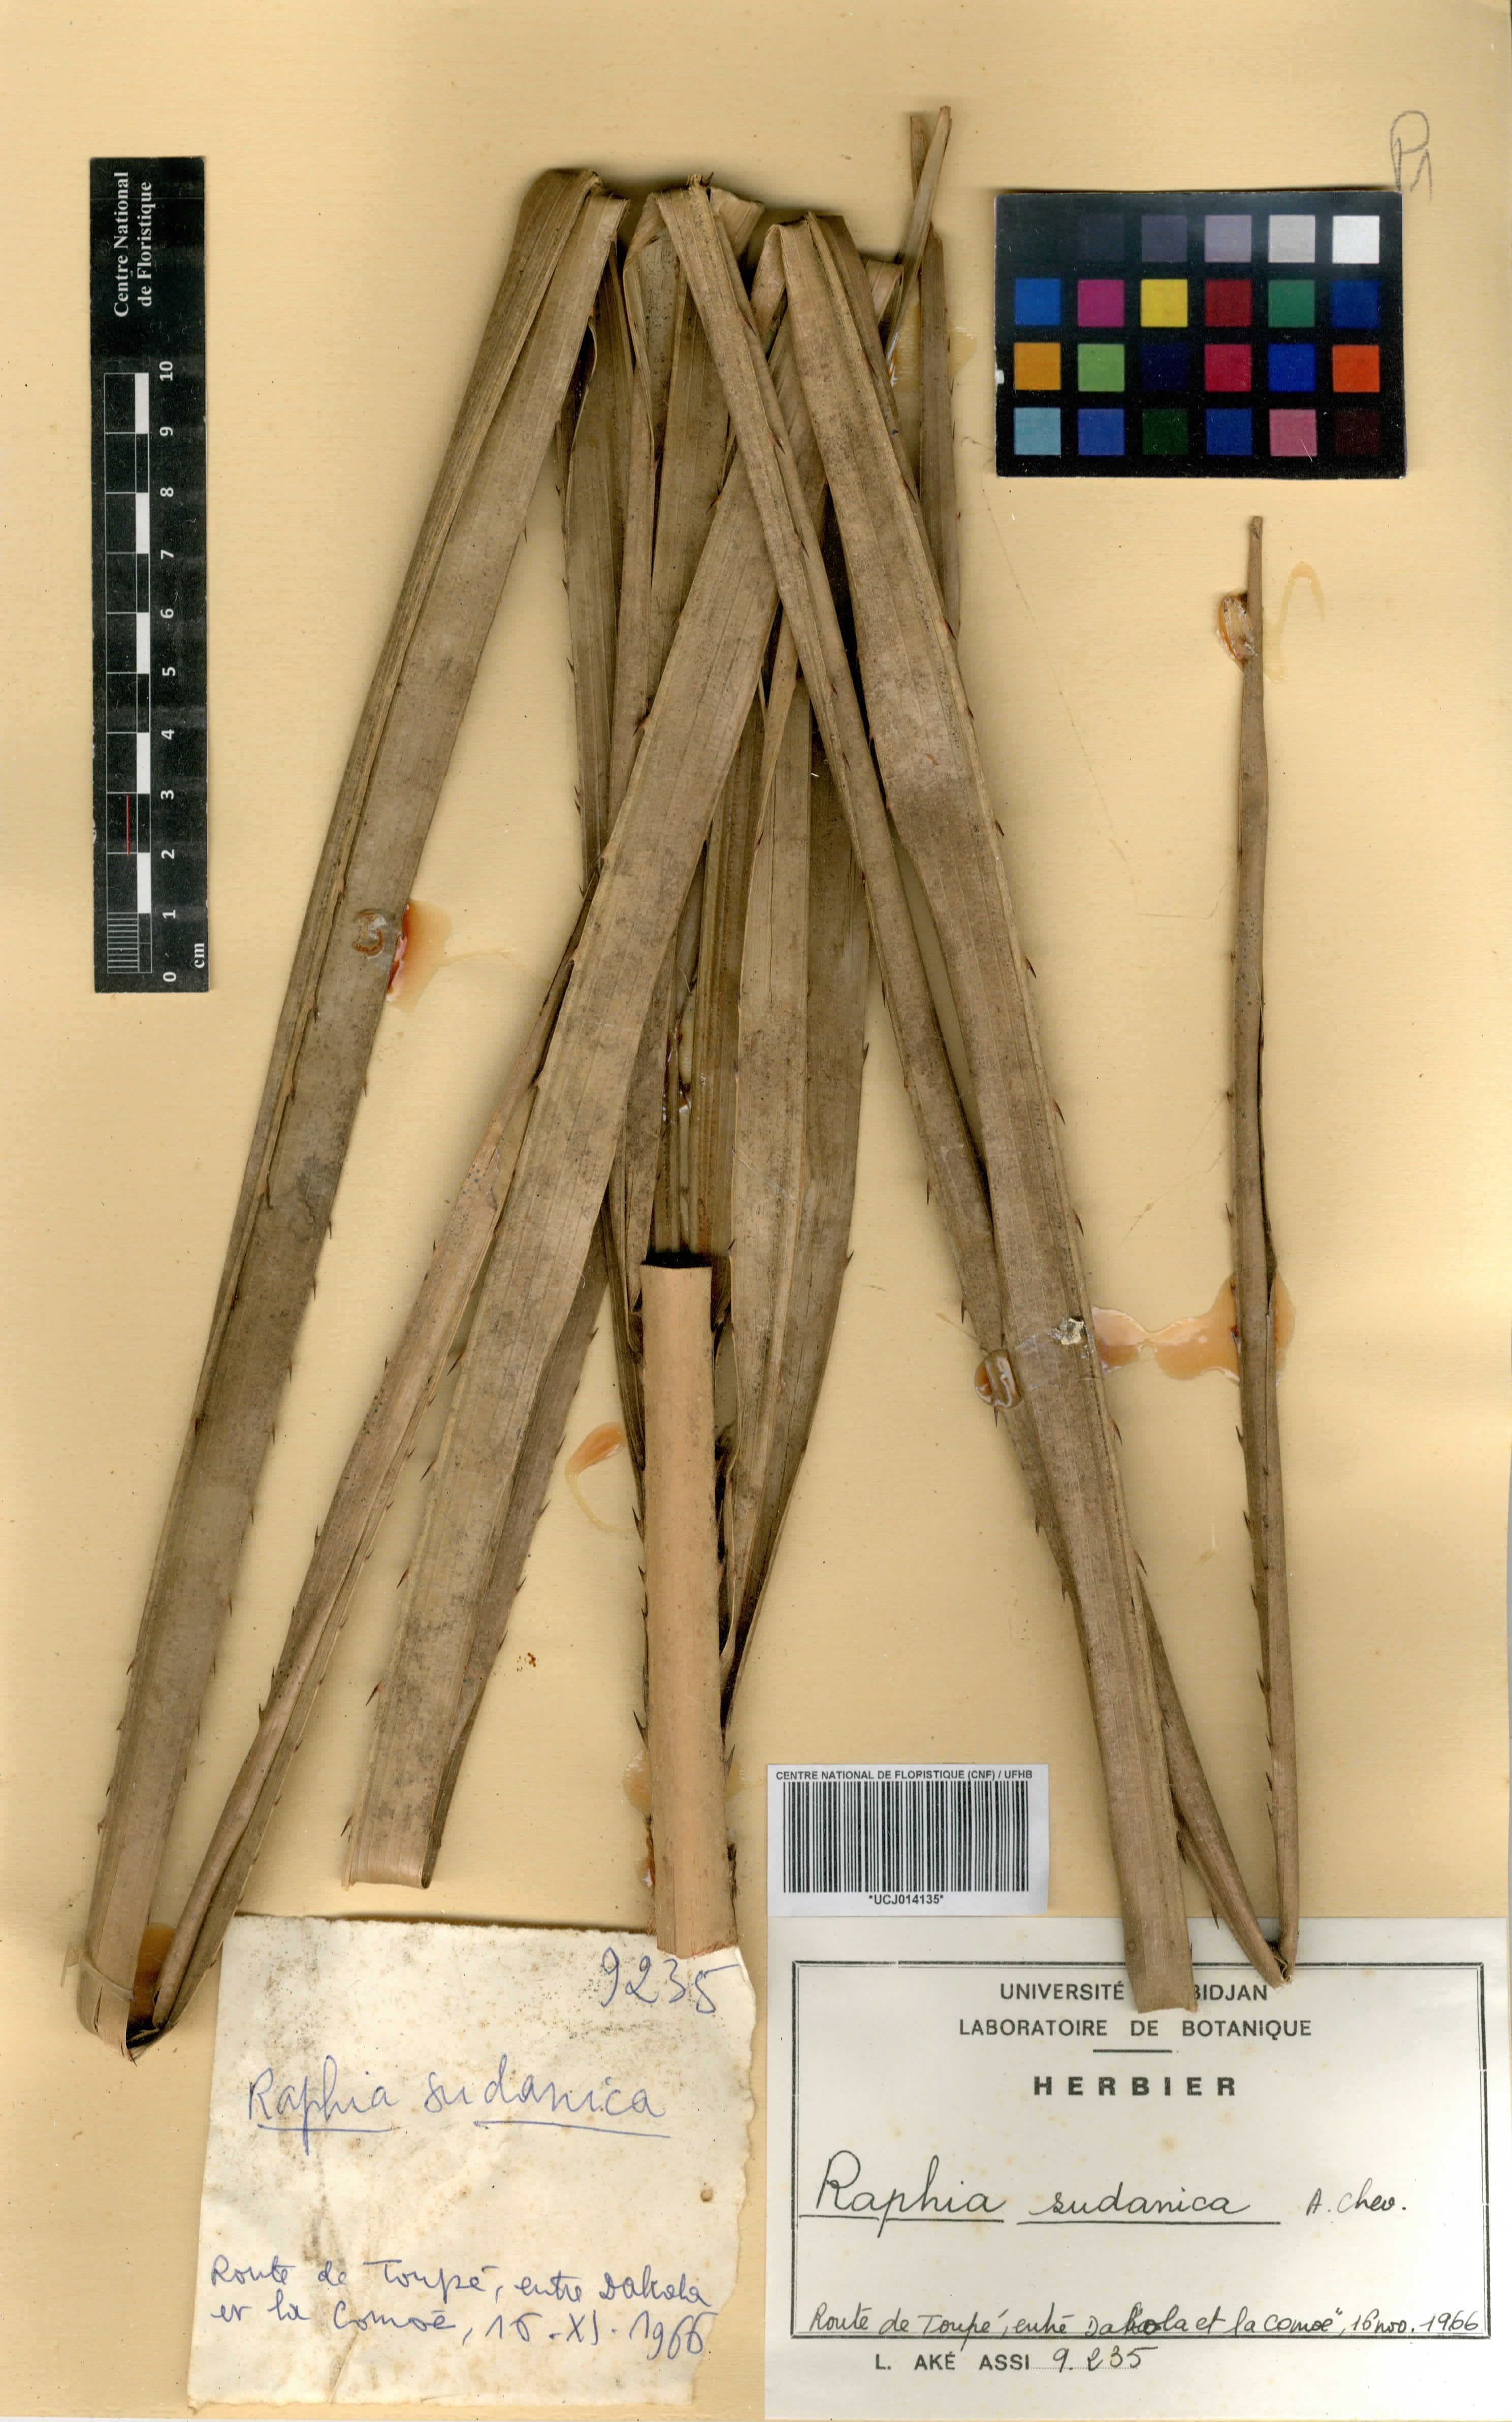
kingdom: Plantae
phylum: Tracheophyta
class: Liliopsida
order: Arecales
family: Arecaceae
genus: Raphia
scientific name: Raphia sudanica
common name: Northern raphia
